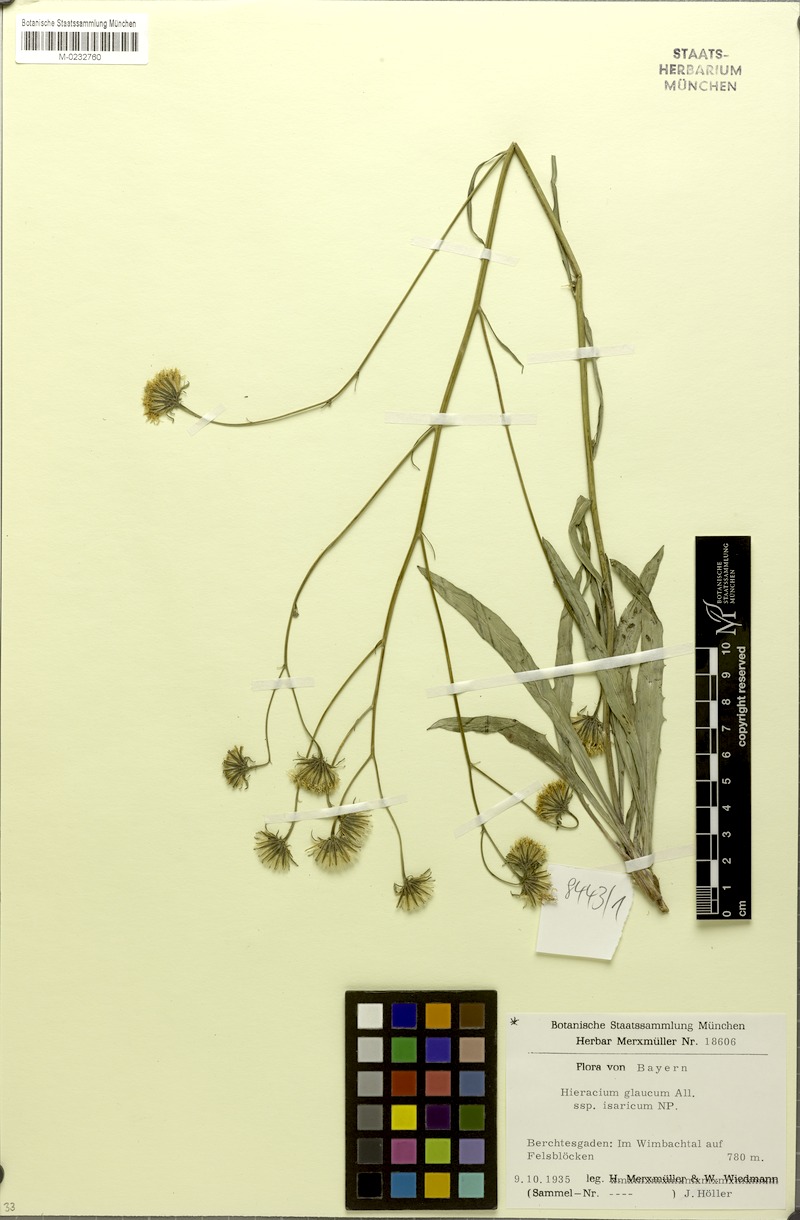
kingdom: Plantae
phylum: Tracheophyta
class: Magnoliopsida
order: Asterales
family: Asteraceae
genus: Hieracium
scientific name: Hieracium glaucum
